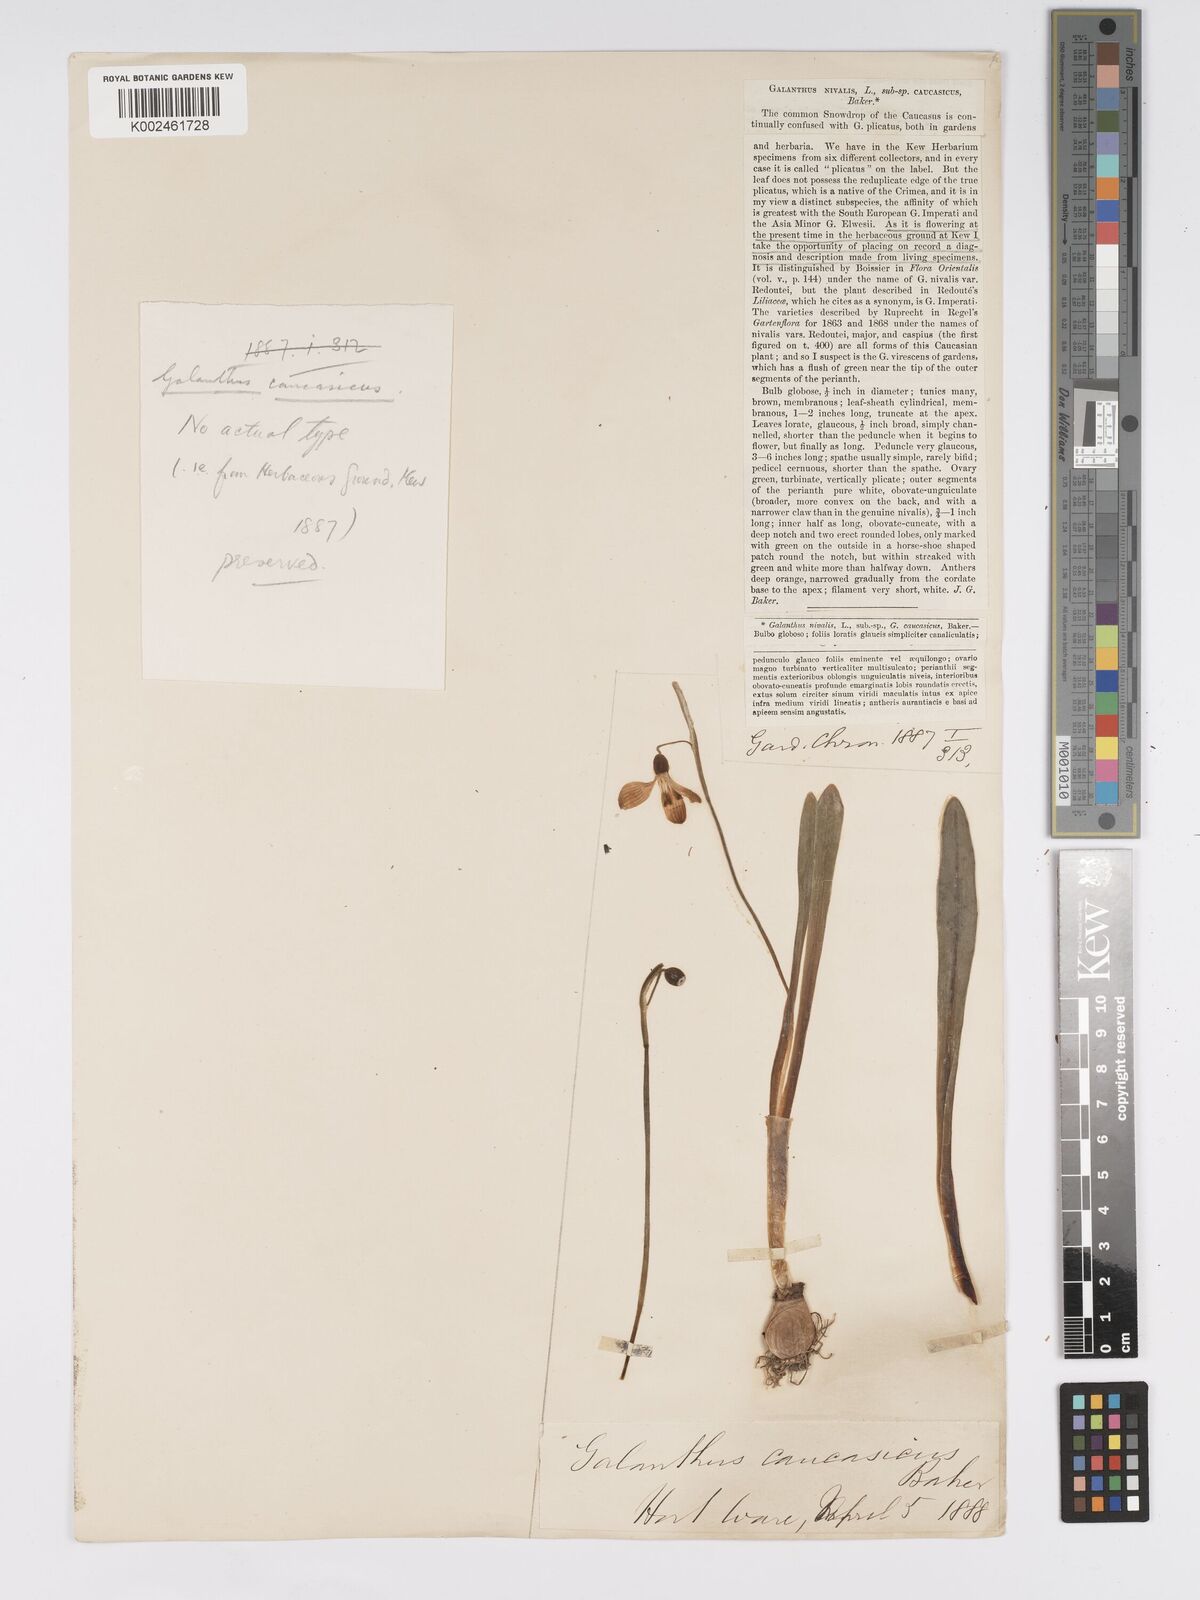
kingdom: Plantae
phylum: Tracheophyta
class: Liliopsida
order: Asparagales
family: Amaryllidaceae
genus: Galanthus
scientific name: Galanthus alpinus
